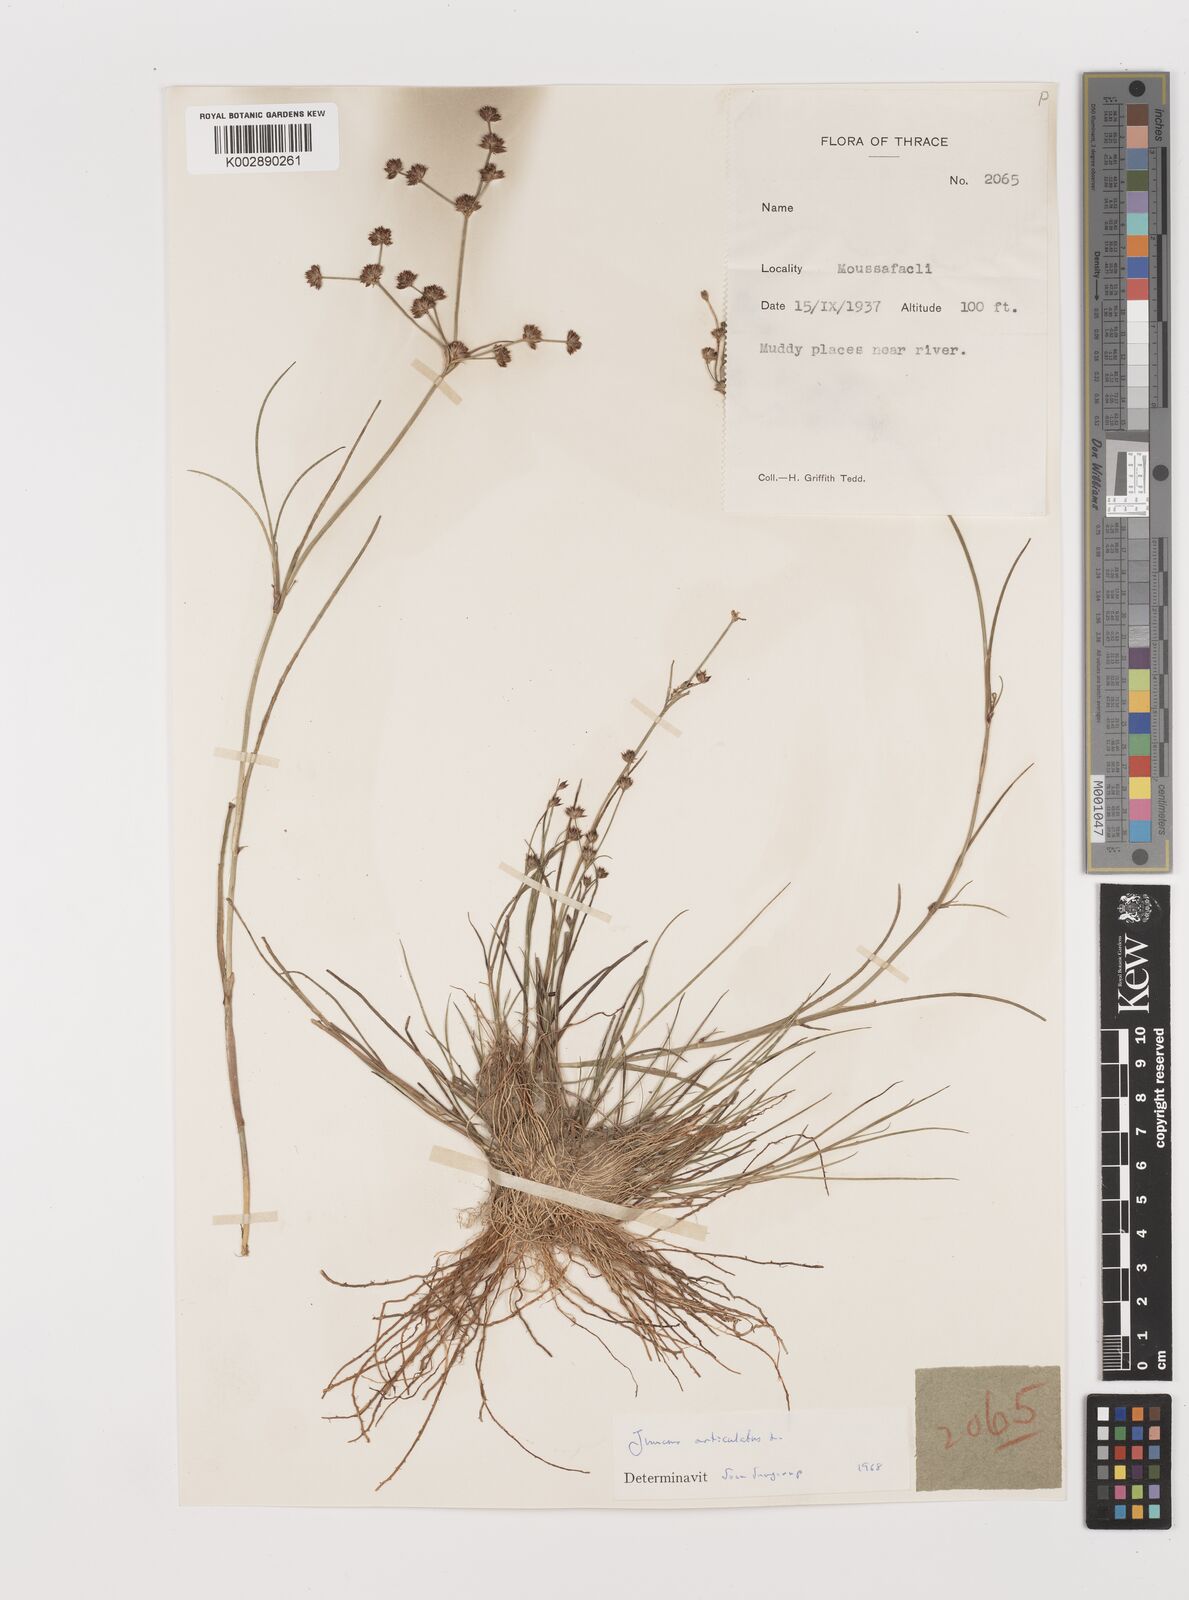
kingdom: Plantae
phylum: Tracheophyta
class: Liliopsida
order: Poales
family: Juncaceae
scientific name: Juncaceae
